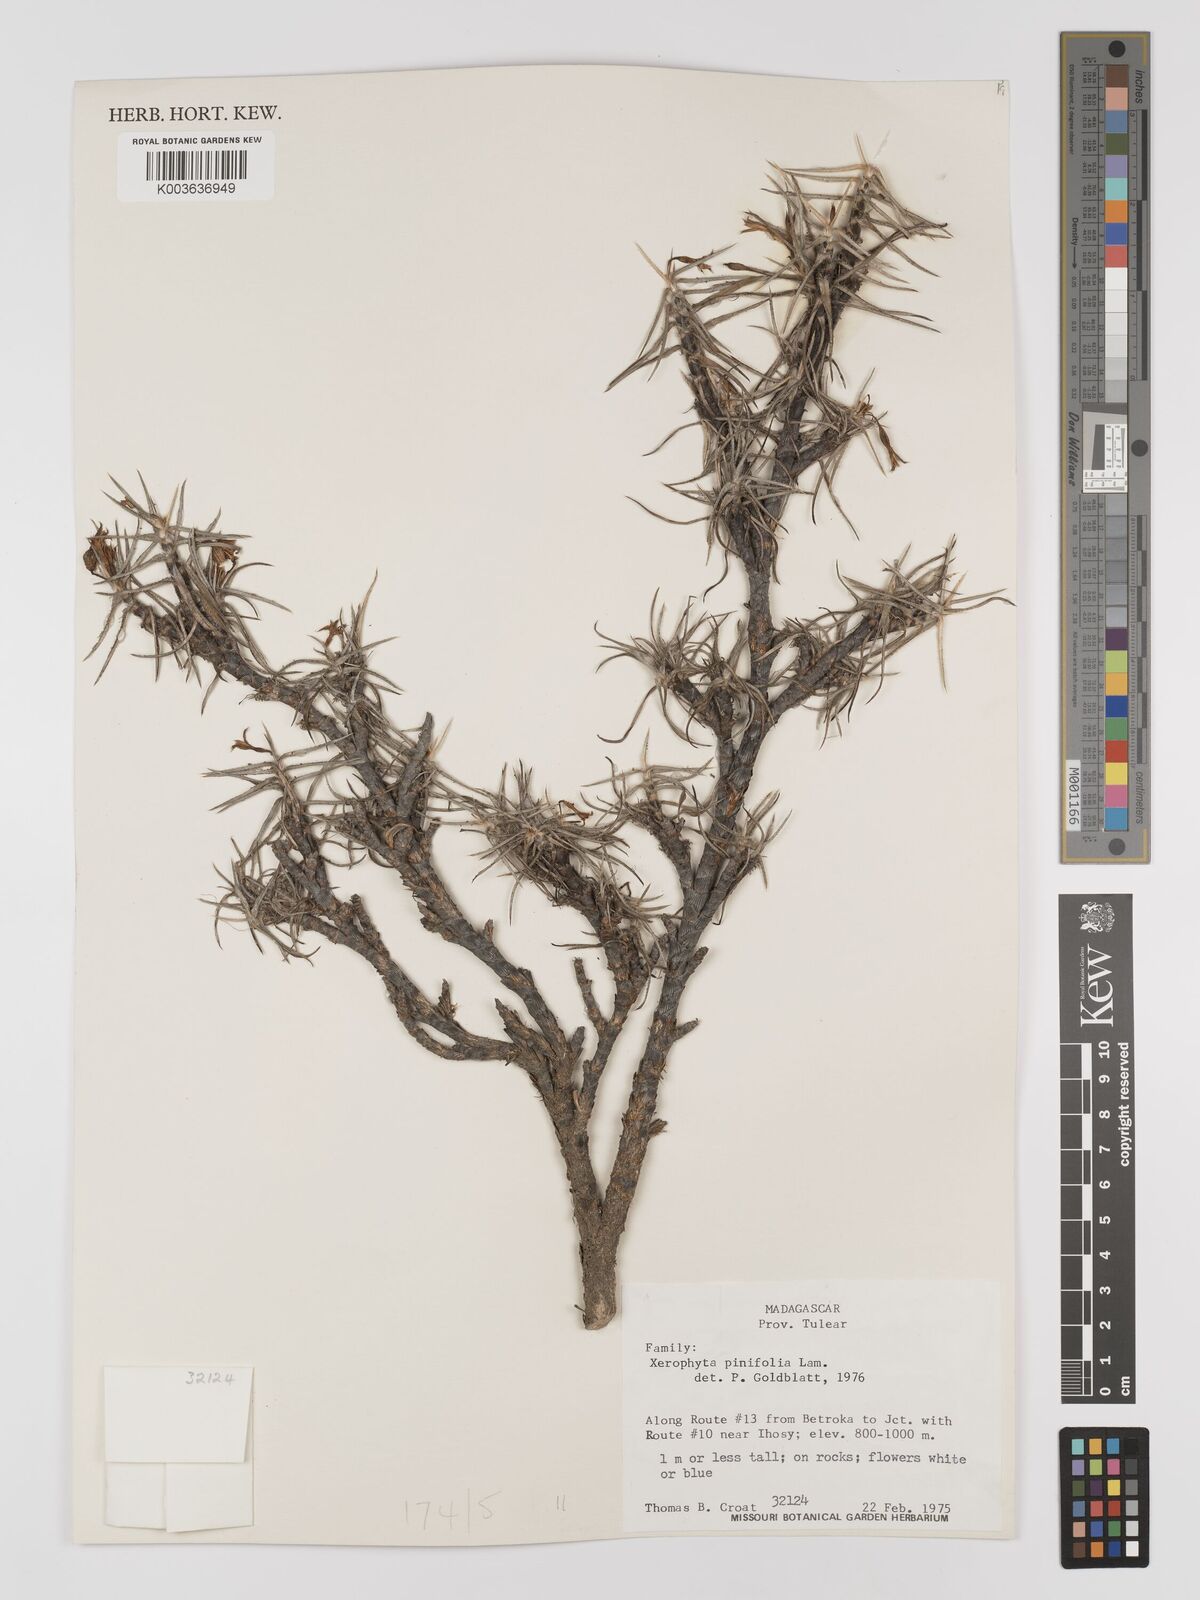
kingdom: Plantae
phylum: Tracheophyta
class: Liliopsida
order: Pandanales
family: Velloziaceae
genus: Xerophyta
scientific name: Xerophyta pinifolia
